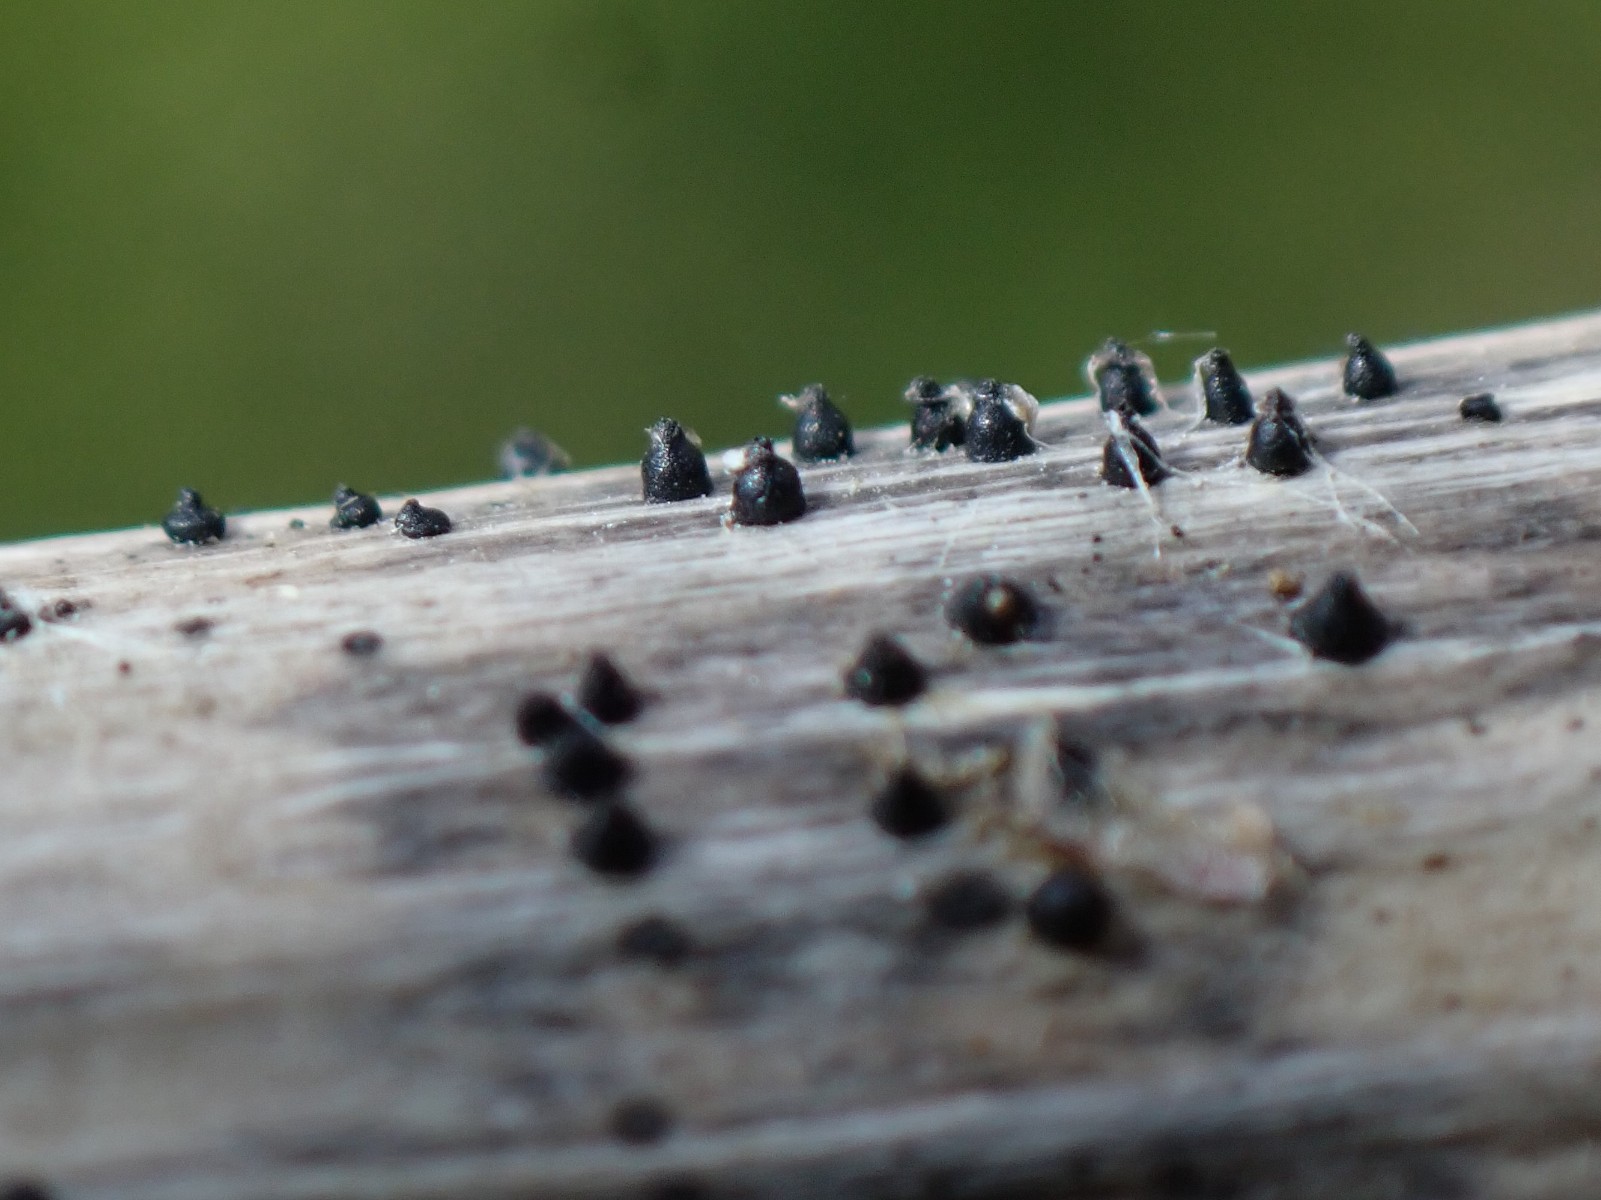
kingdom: Fungi
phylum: Ascomycota
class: Dothideomycetes
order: Pleosporales
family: Leptosphaeriaceae
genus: Leptosphaeria
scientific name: Leptosphaeria acuta
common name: spids kulkegle
